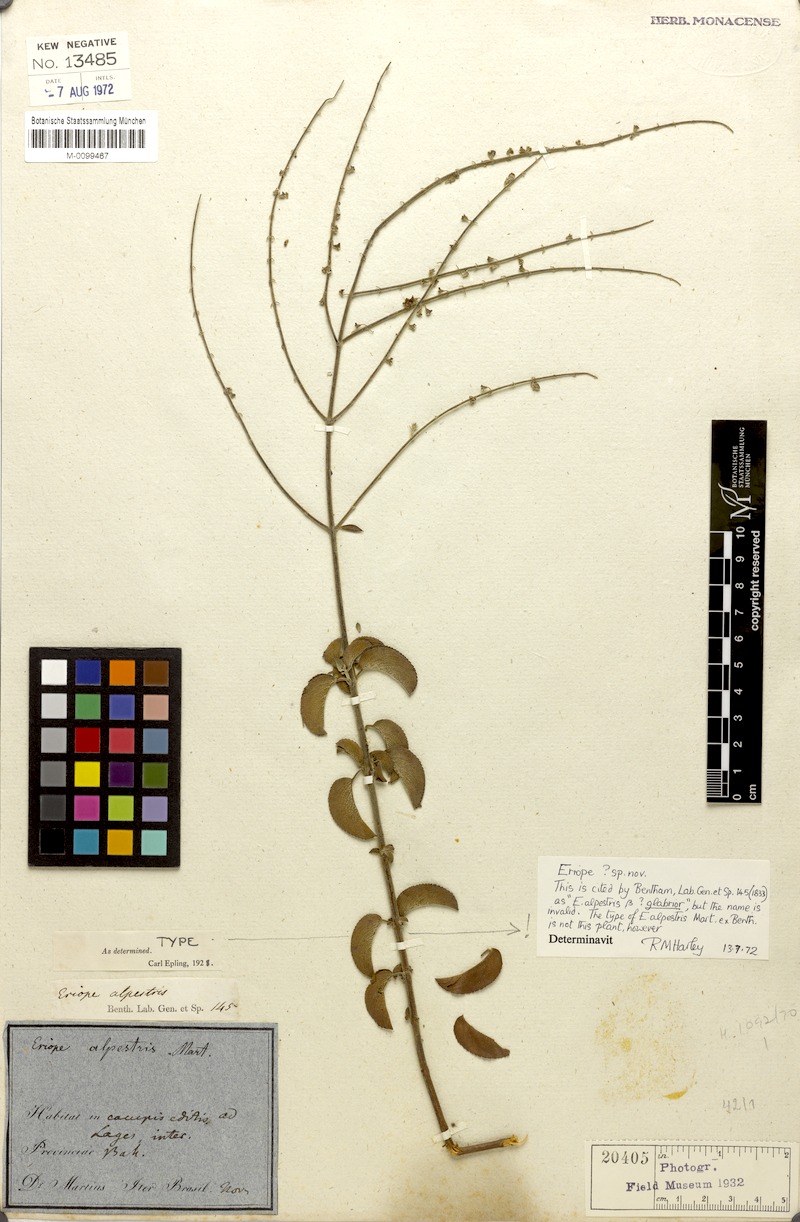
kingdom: Plantae
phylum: Tracheophyta
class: Magnoliopsida
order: Lamiales
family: Lamiaceae
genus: Eriope
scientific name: Eriope alpestris
